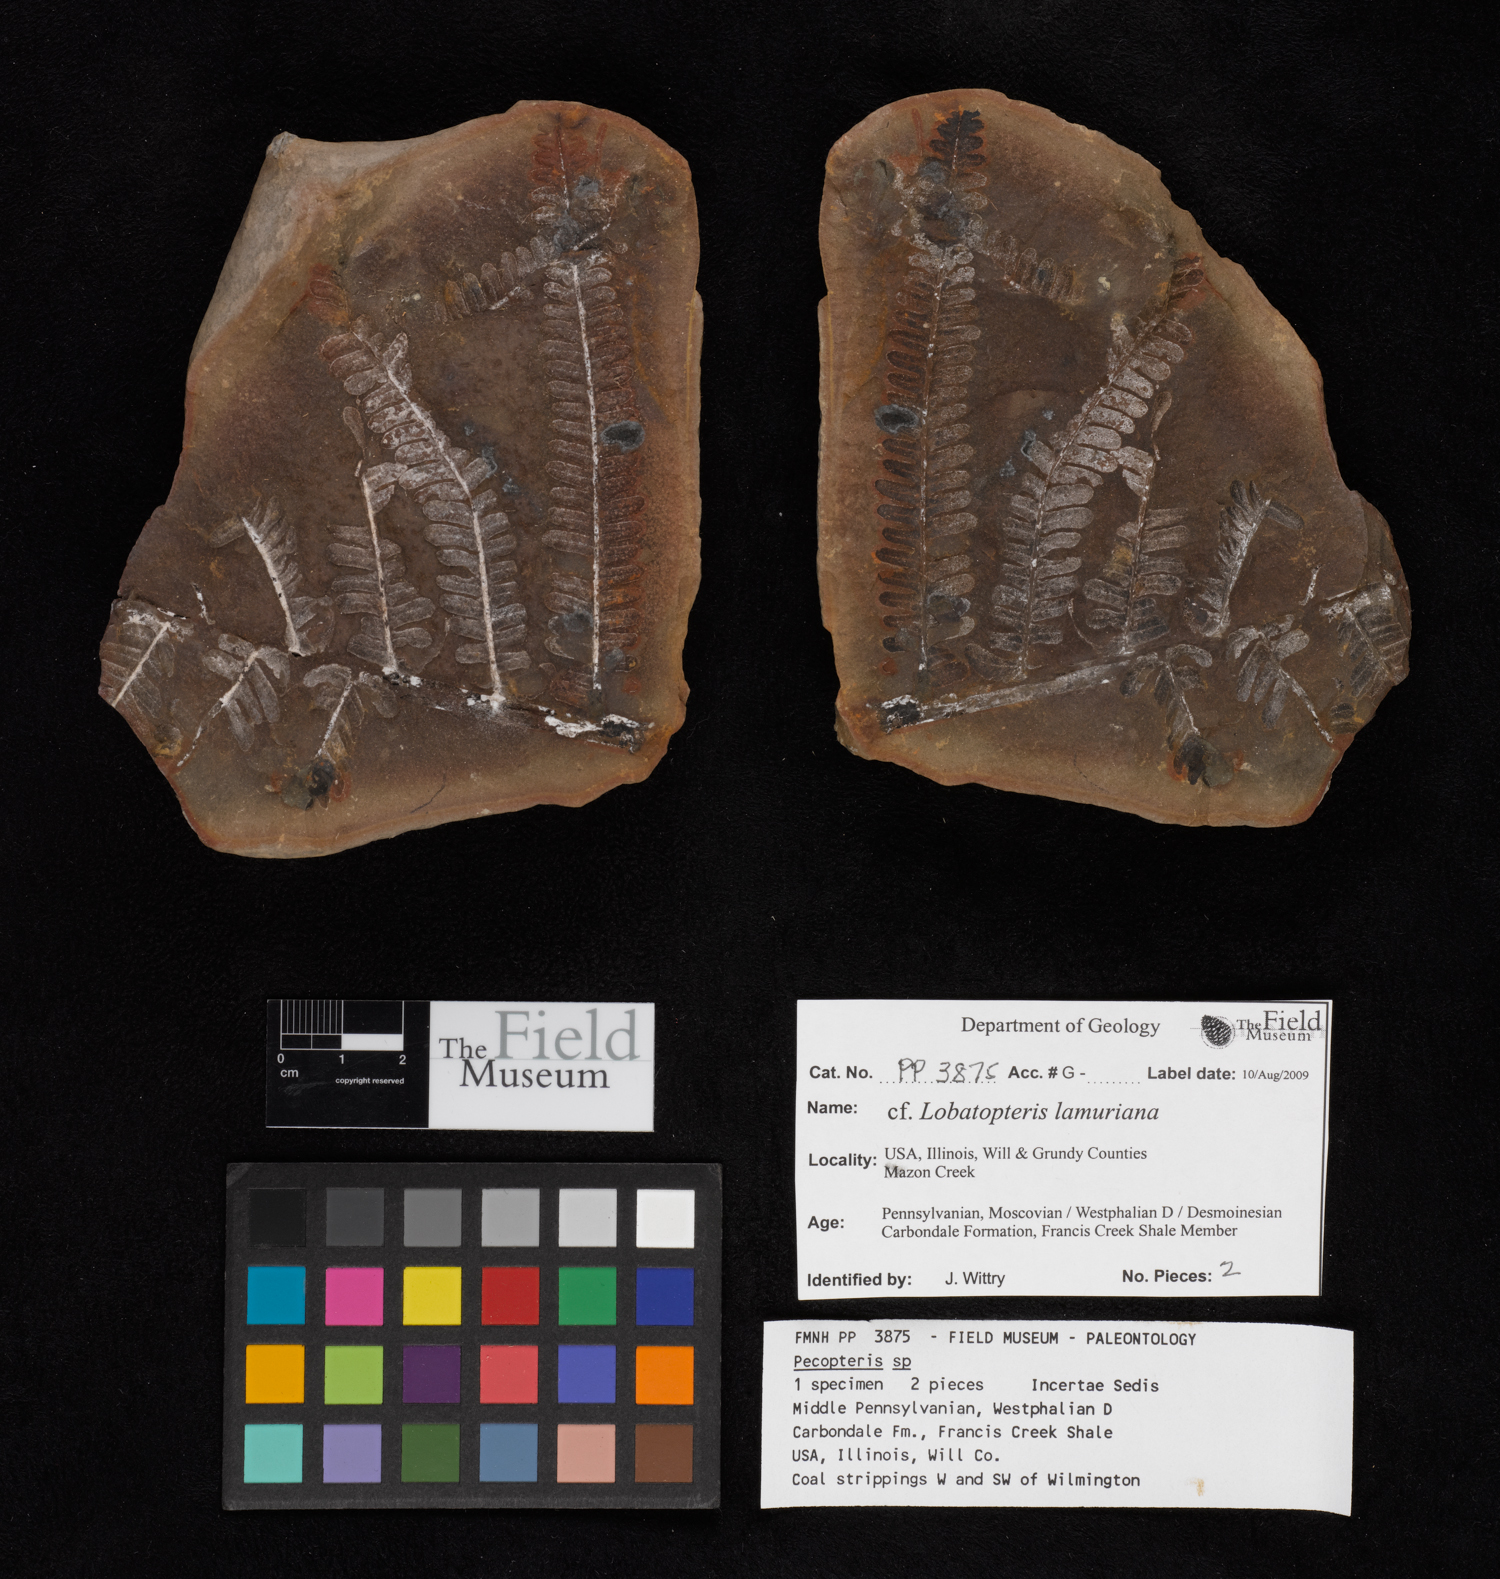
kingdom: Plantae
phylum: Tracheophyta
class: Polypodiopsida
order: Marattiales
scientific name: Marattiales
